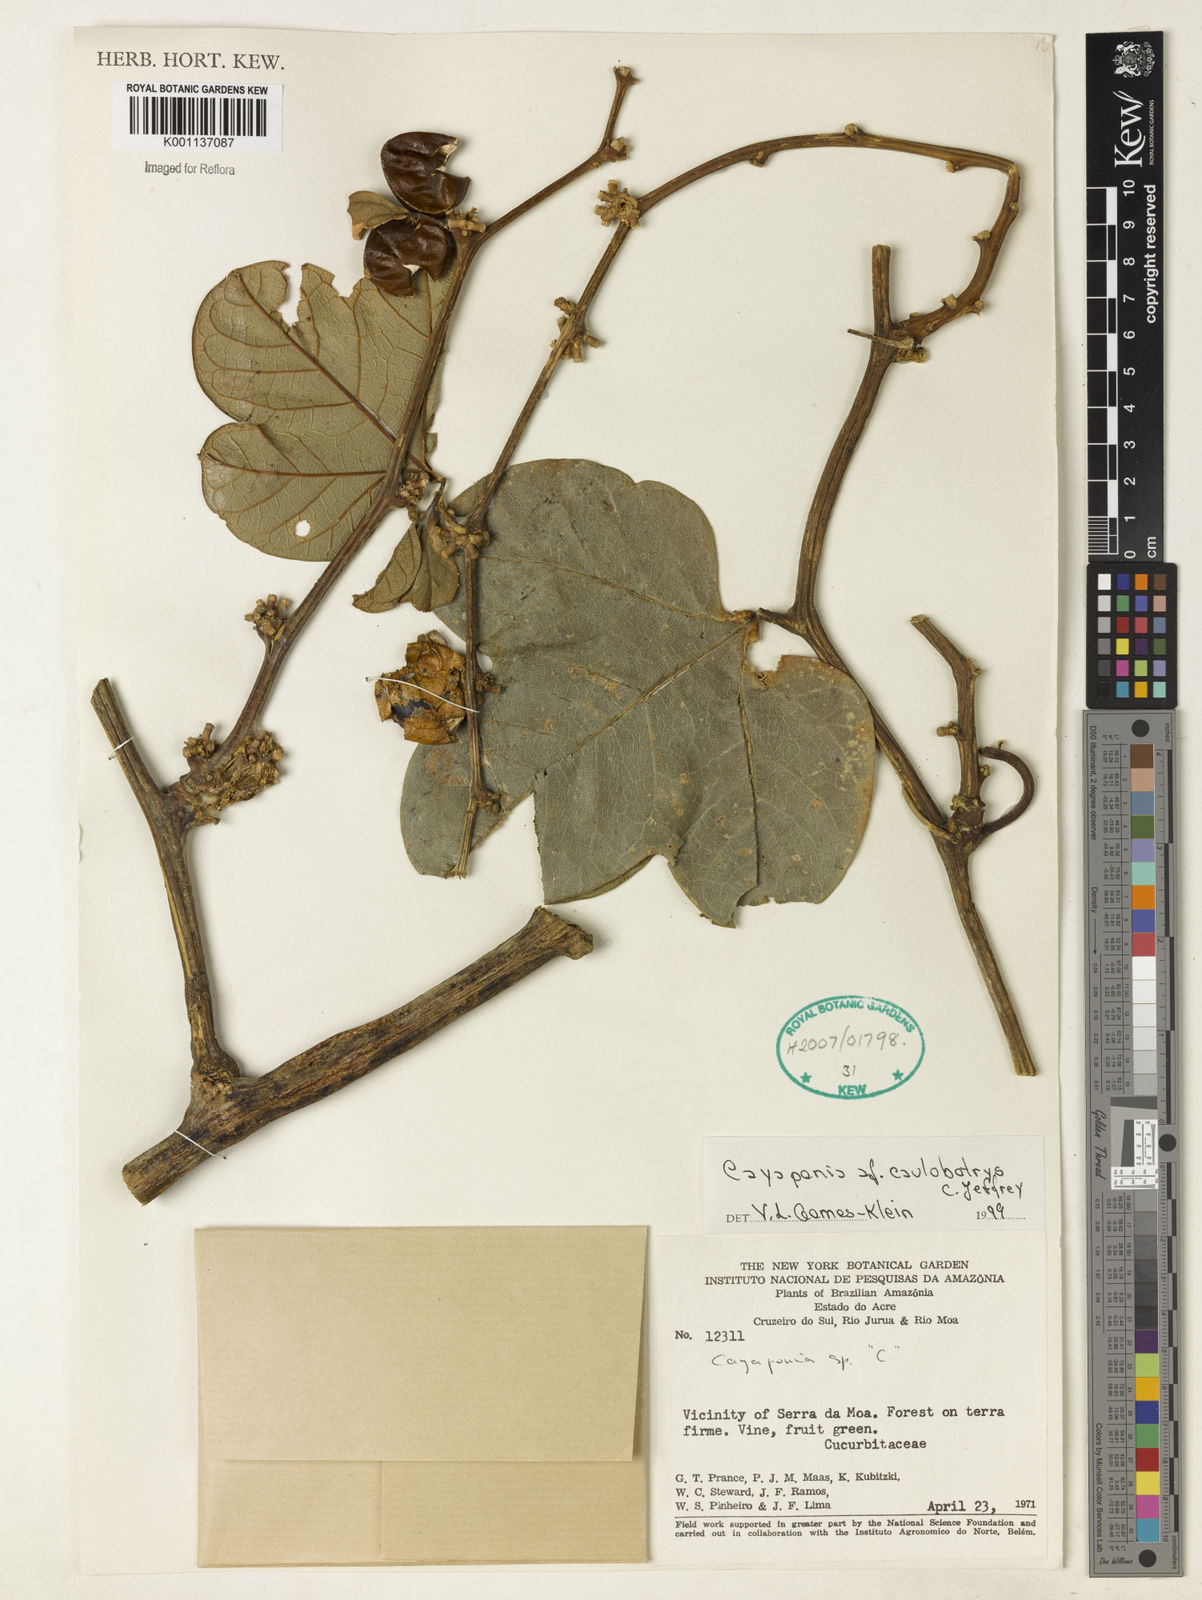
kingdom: Plantae
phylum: Tracheophyta
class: Magnoliopsida
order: Cucurbitales
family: Cucurbitaceae
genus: Cayaponia
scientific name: Cayaponia caulobotrys
